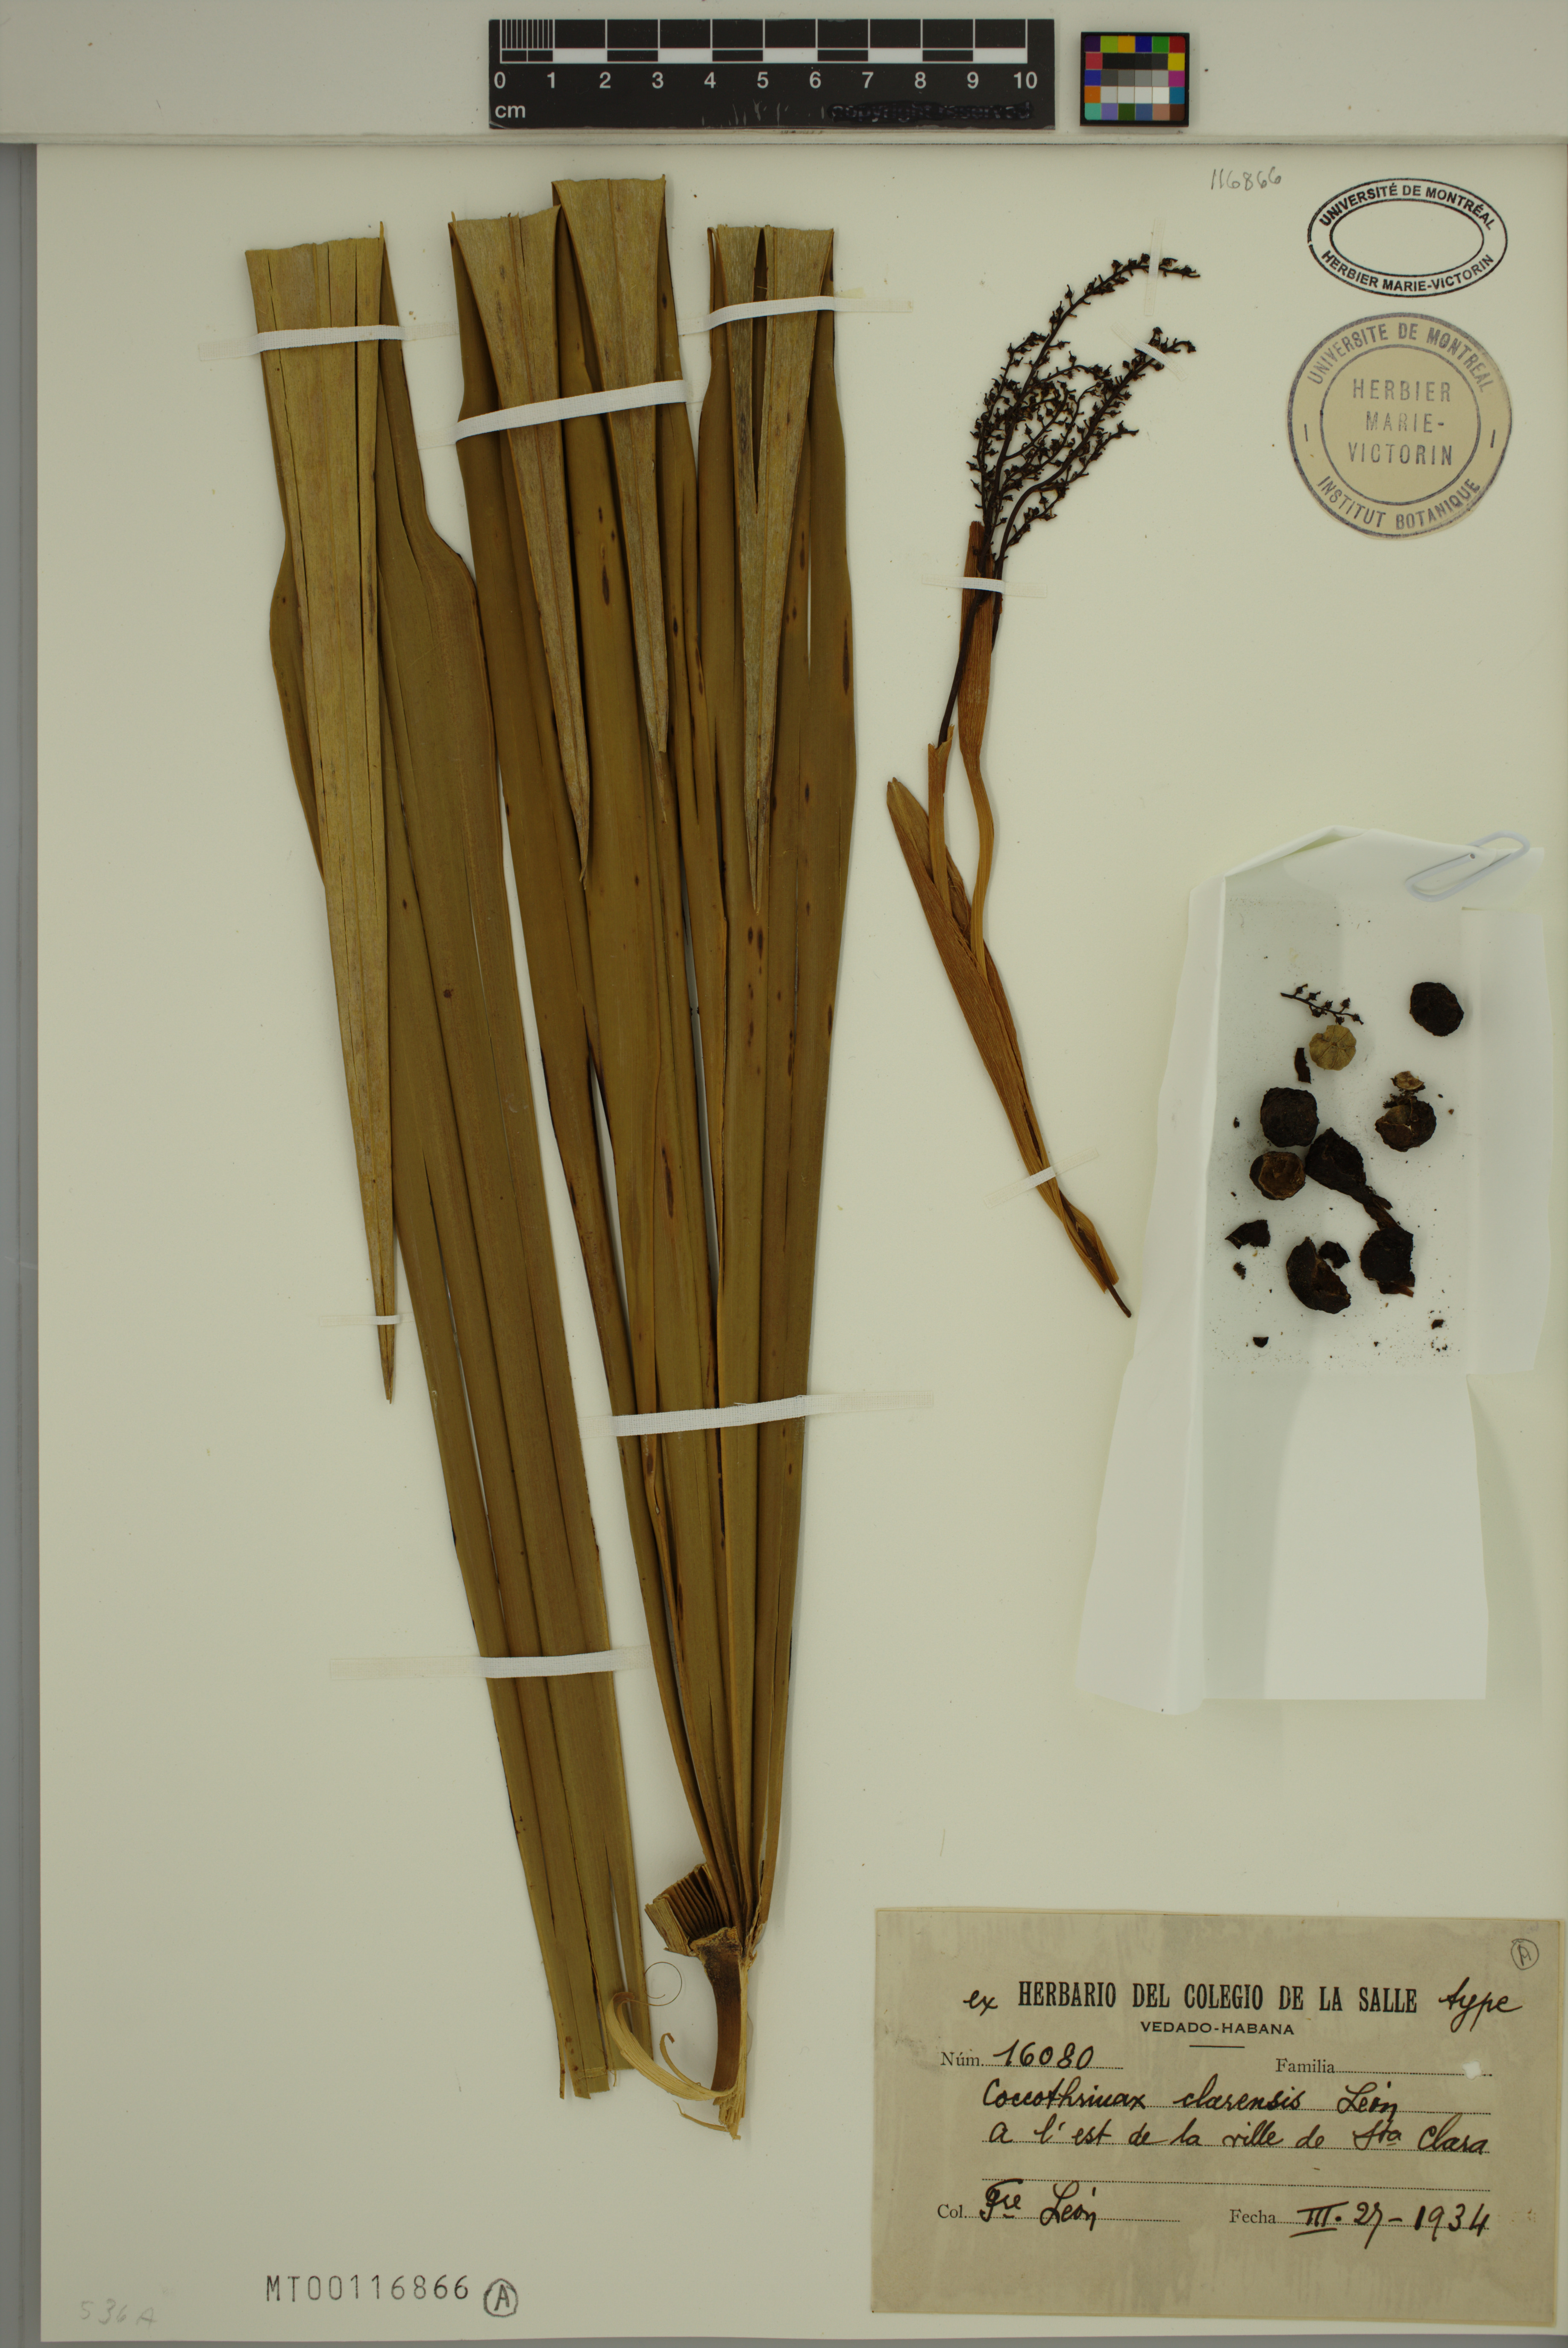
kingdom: Plantae
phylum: Tracheophyta
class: Liliopsida
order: Arecales
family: Arecaceae
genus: Coccothrinax
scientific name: Coccothrinax clarensis
